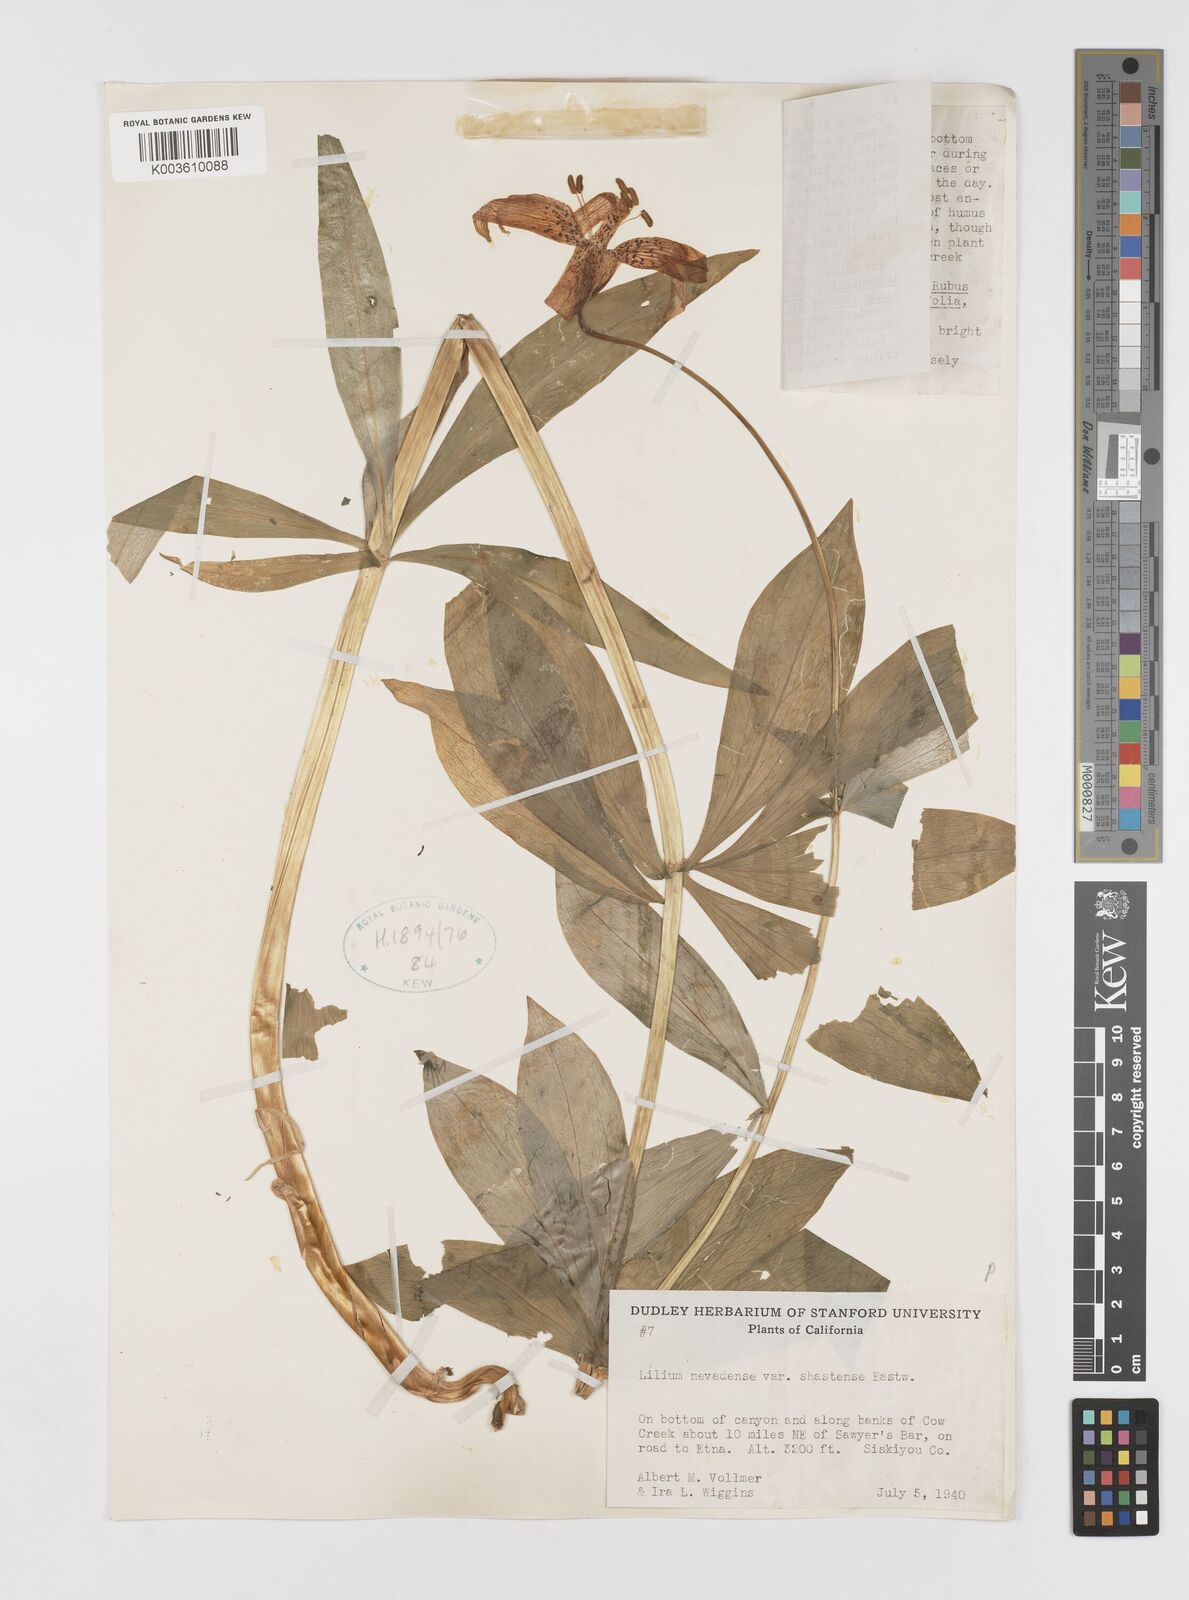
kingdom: Plantae
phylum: Tracheophyta
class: Liliopsida
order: Liliales
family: Liliaceae
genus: Lilium
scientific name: Lilium kelleyanum
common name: Kelley's lily
